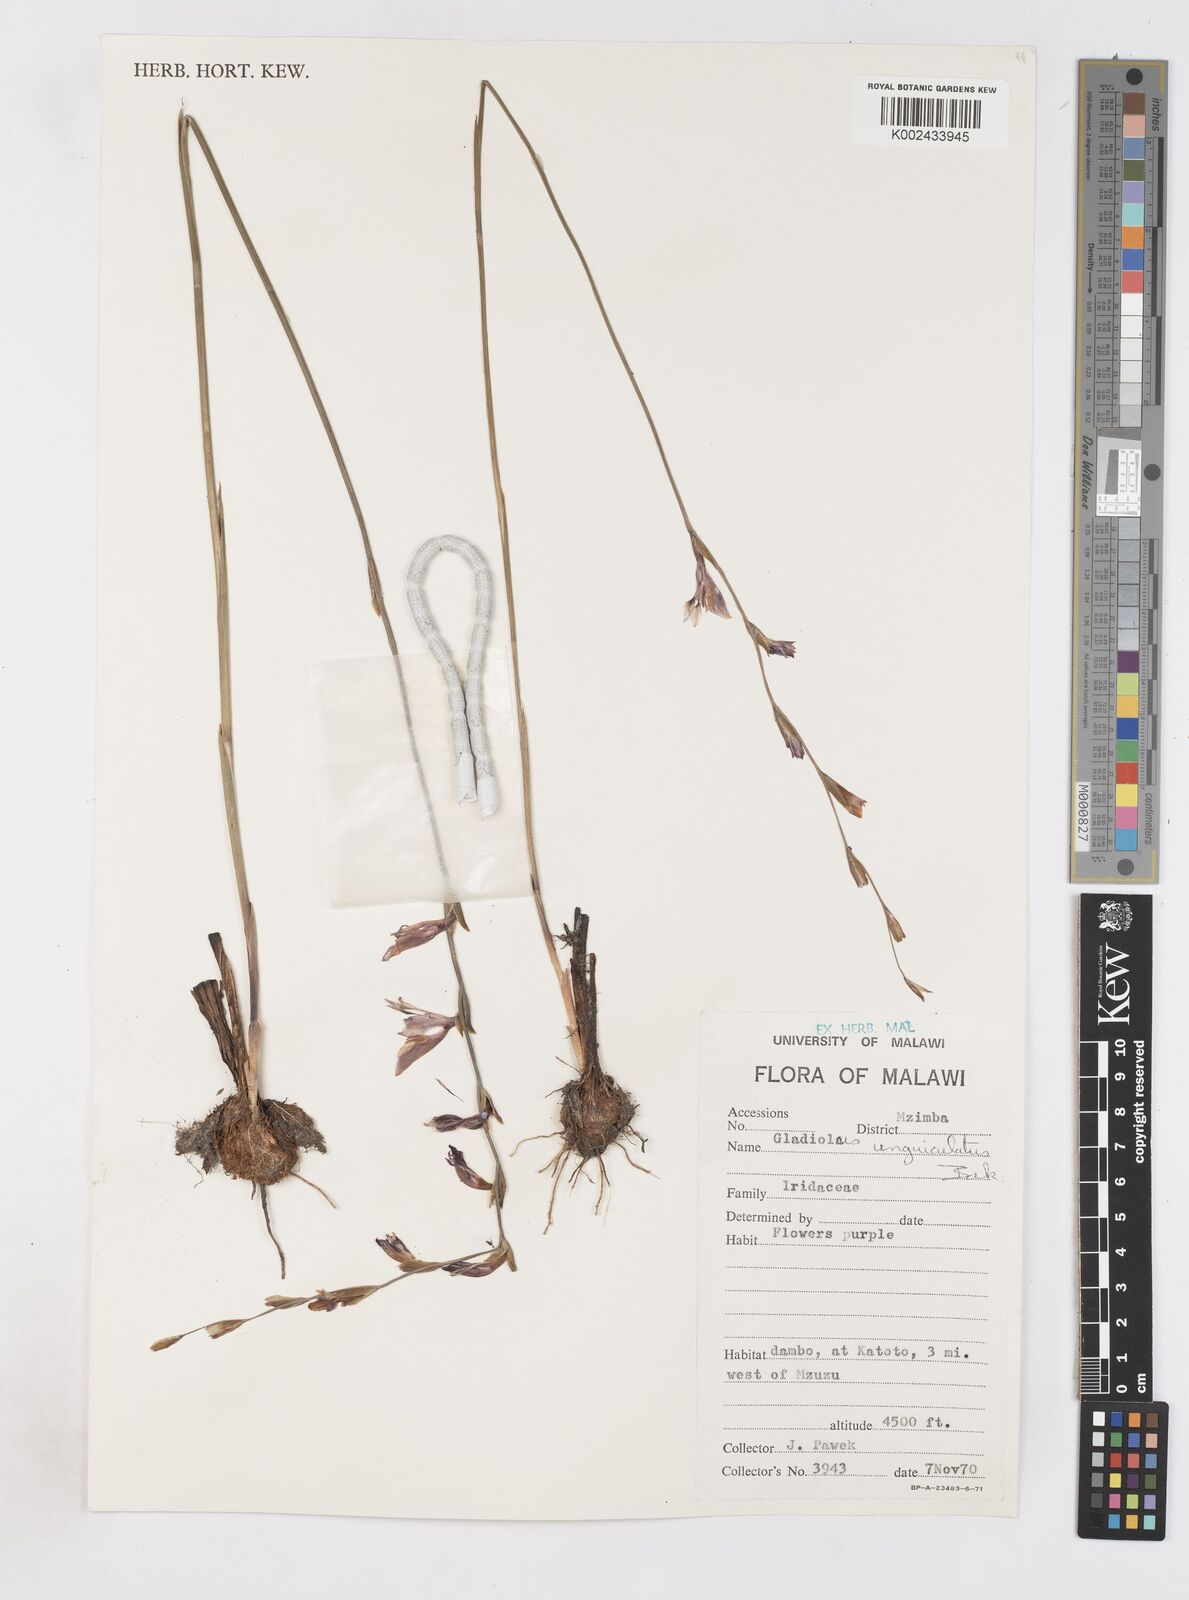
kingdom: Plantae
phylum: Tracheophyta
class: Liliopsida
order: Asparagales
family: Iridaceae
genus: Gladiolus
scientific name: Gladiolus atropurpureus
